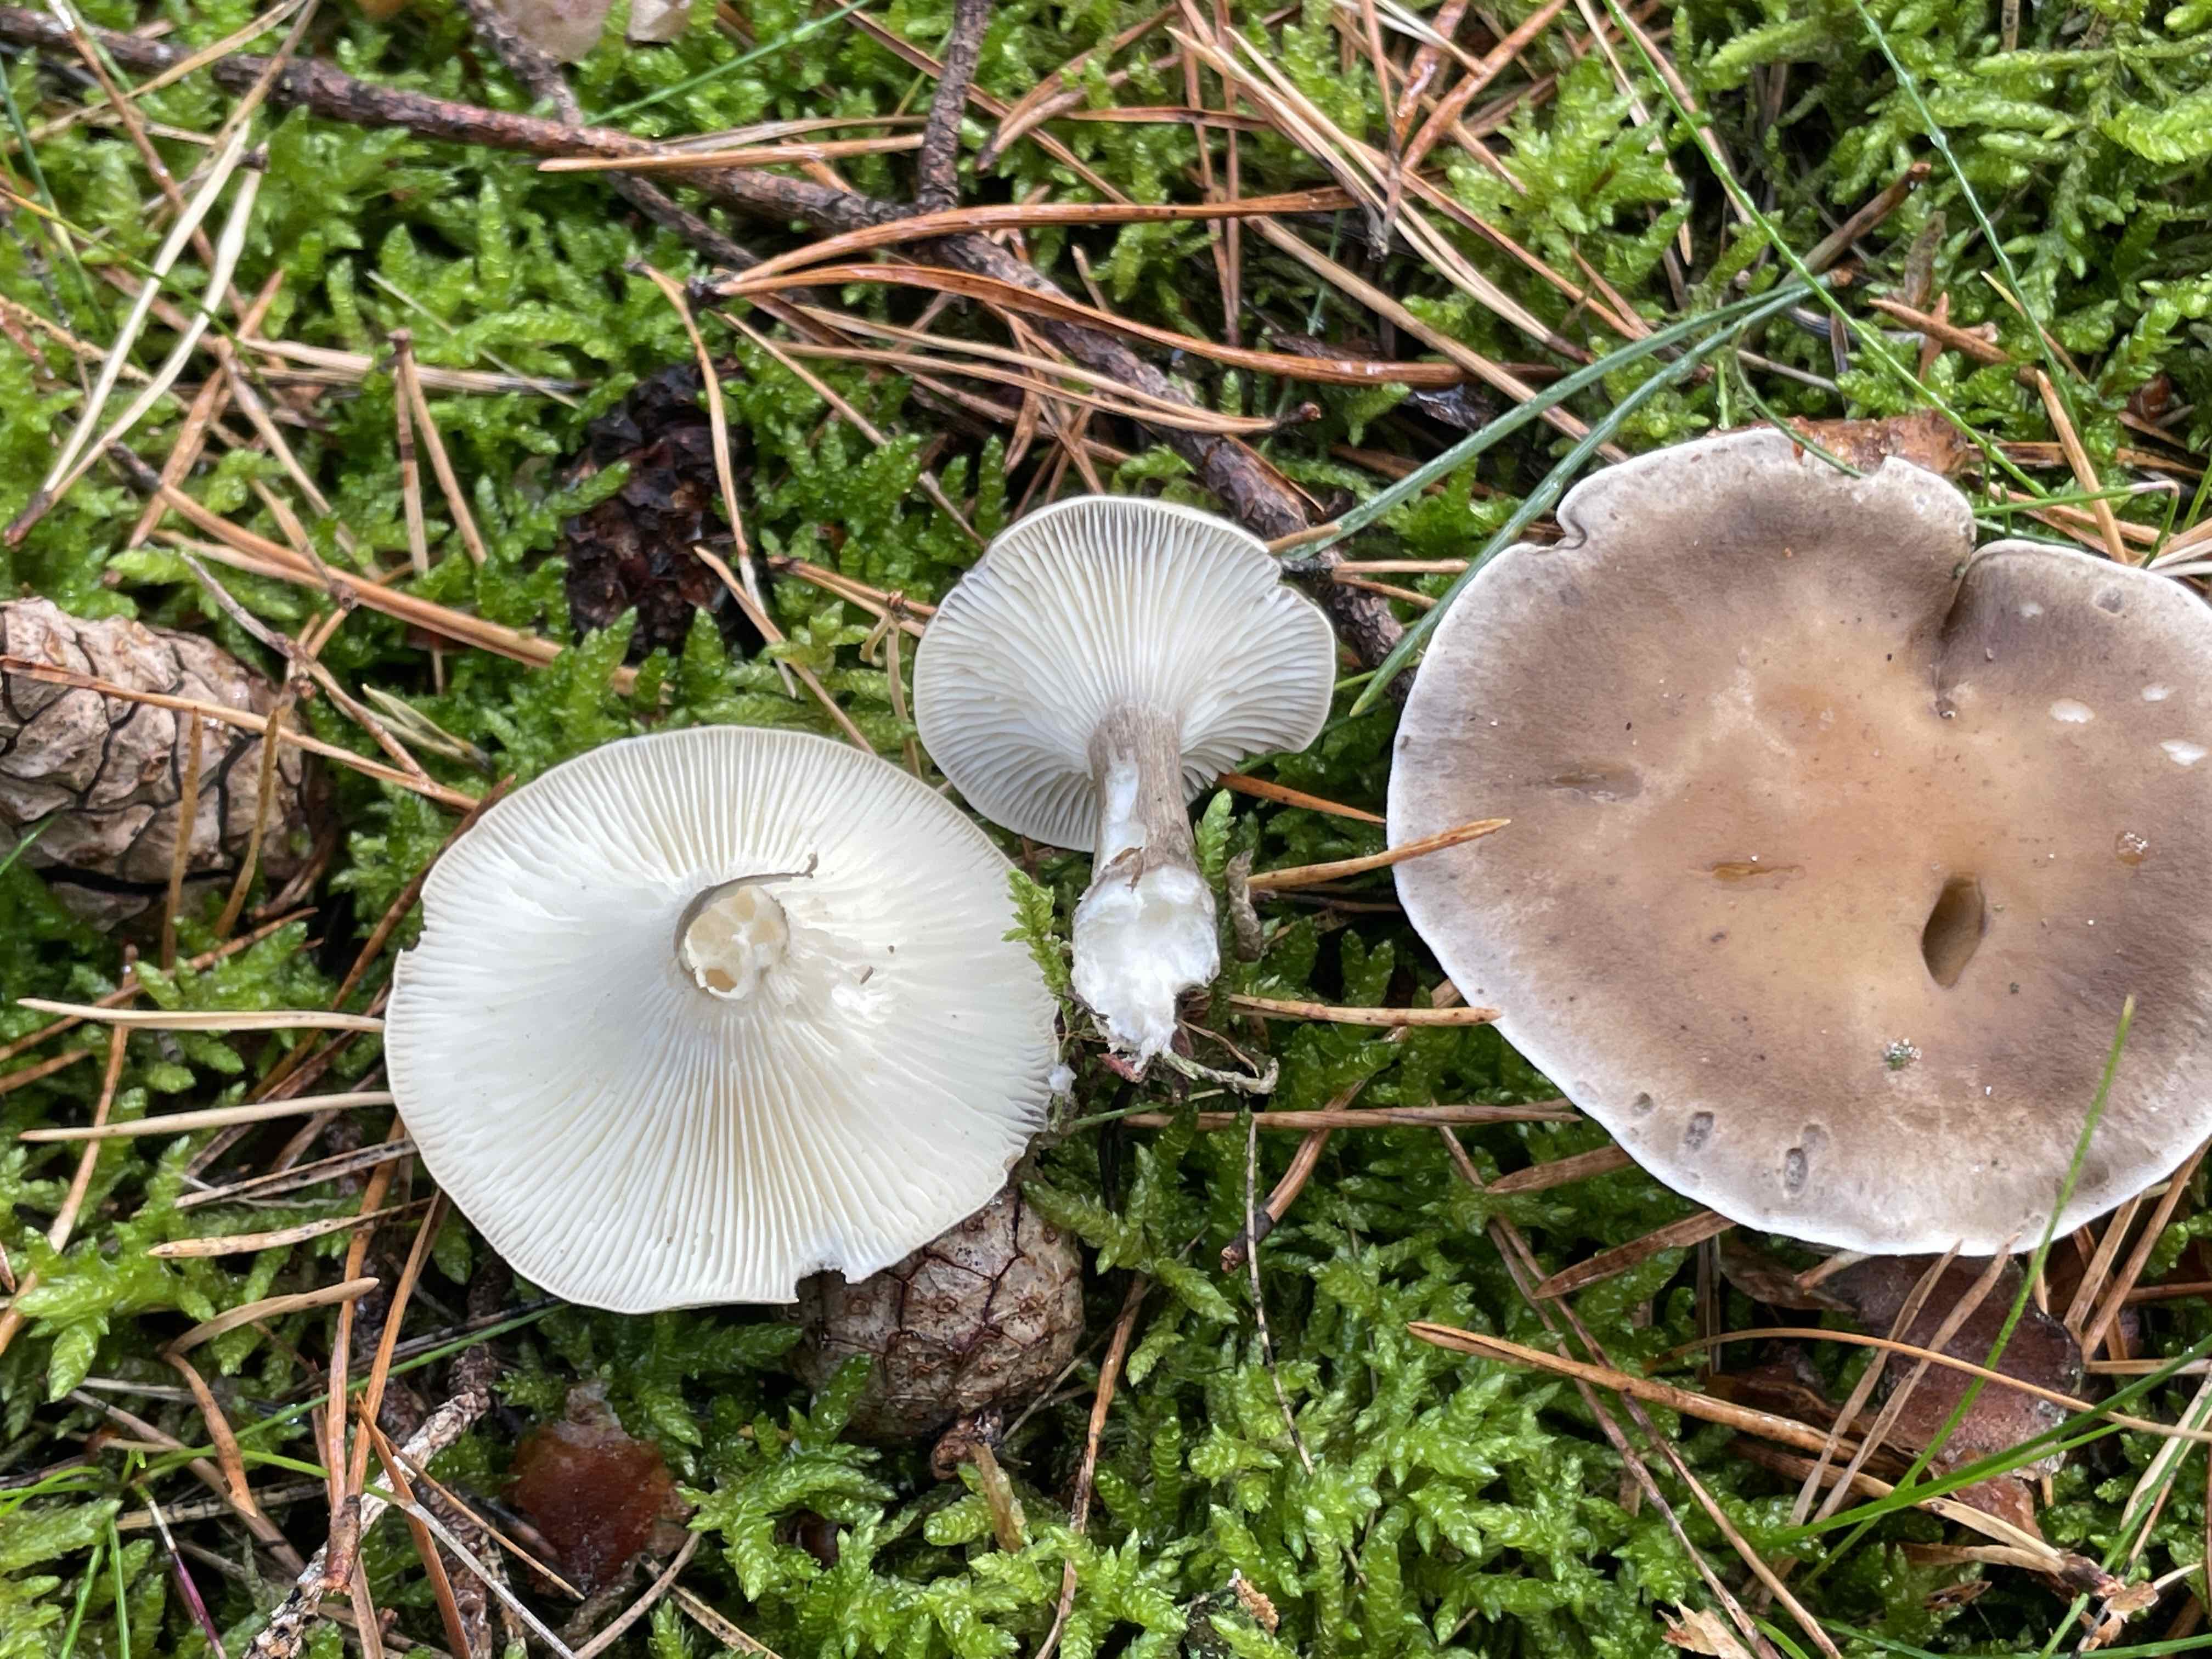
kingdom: Fungi
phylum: Basidiomycota
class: Agaricomycetes
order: Agaricales
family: Hygrophoraceae
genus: Ampulloclitocybe
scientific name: Ampulloclitocybe clavipes
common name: køllefod
